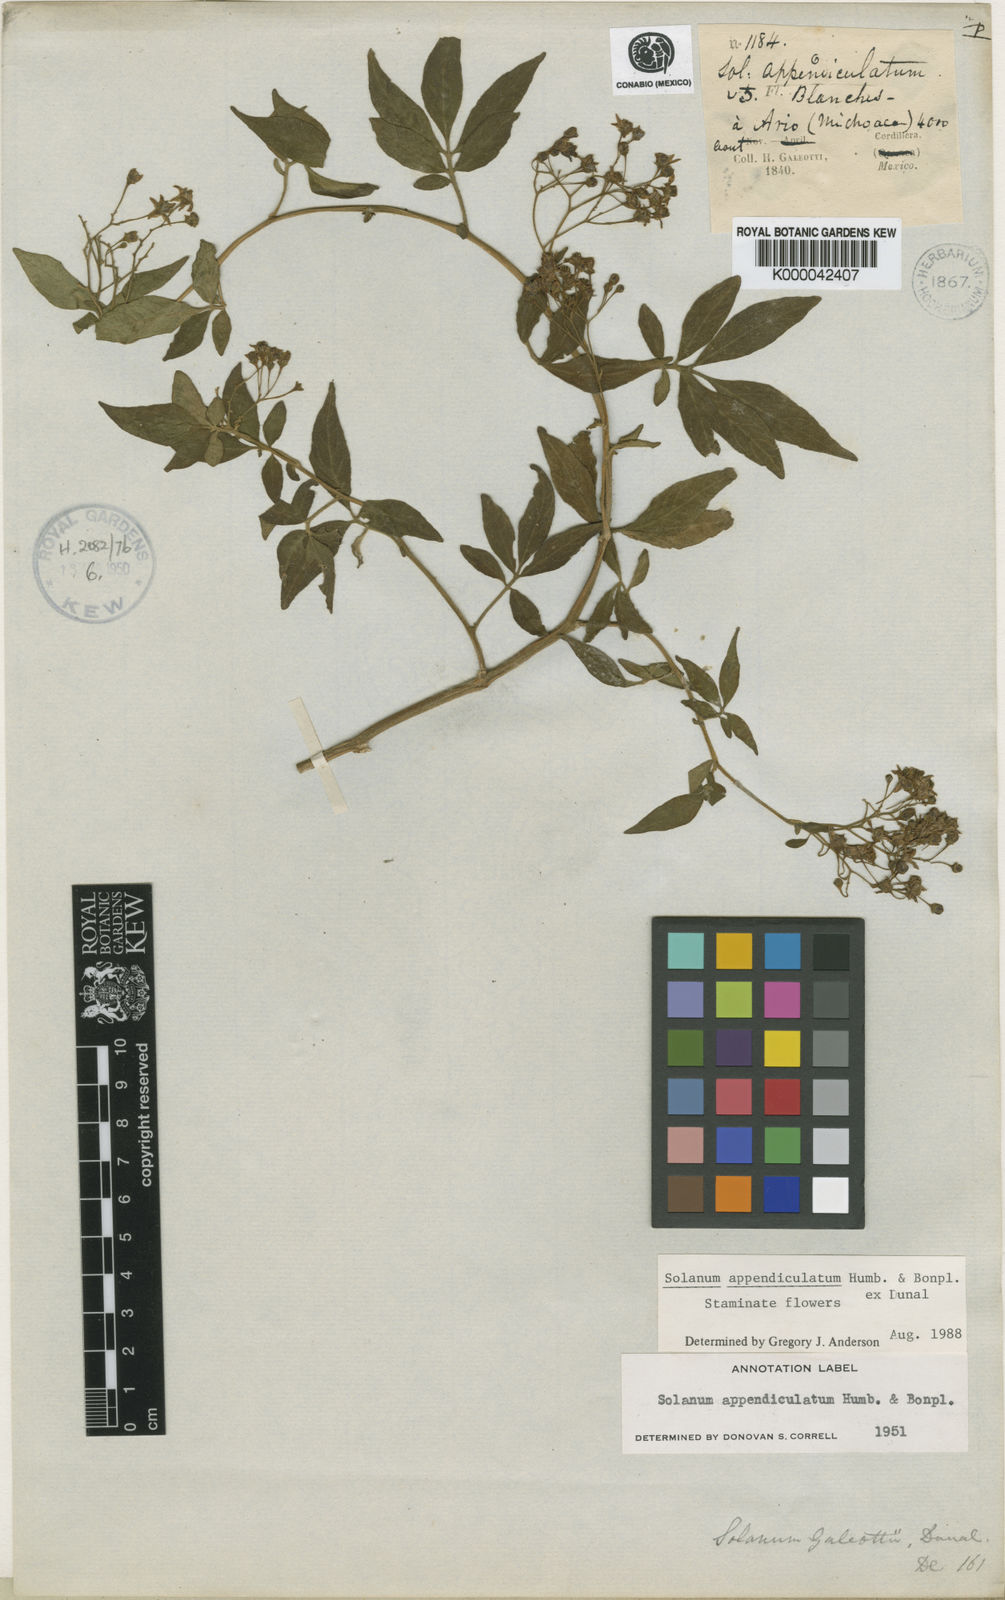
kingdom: Plantae
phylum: Tracheophyta
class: Magnoliopsida
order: Solanales
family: Solanaceae
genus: Solanum
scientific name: Solanum appendiculatum
